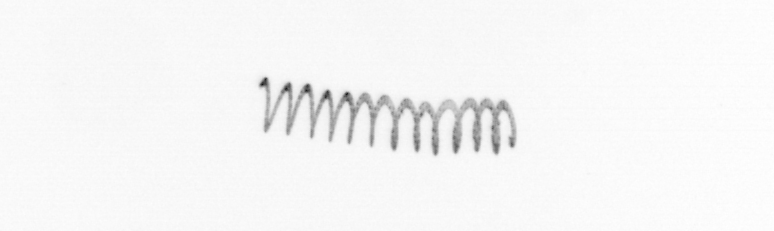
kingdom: Chromista
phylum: Ochrophyta
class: Bacillariophyceae
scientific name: Bacillariophyceae
